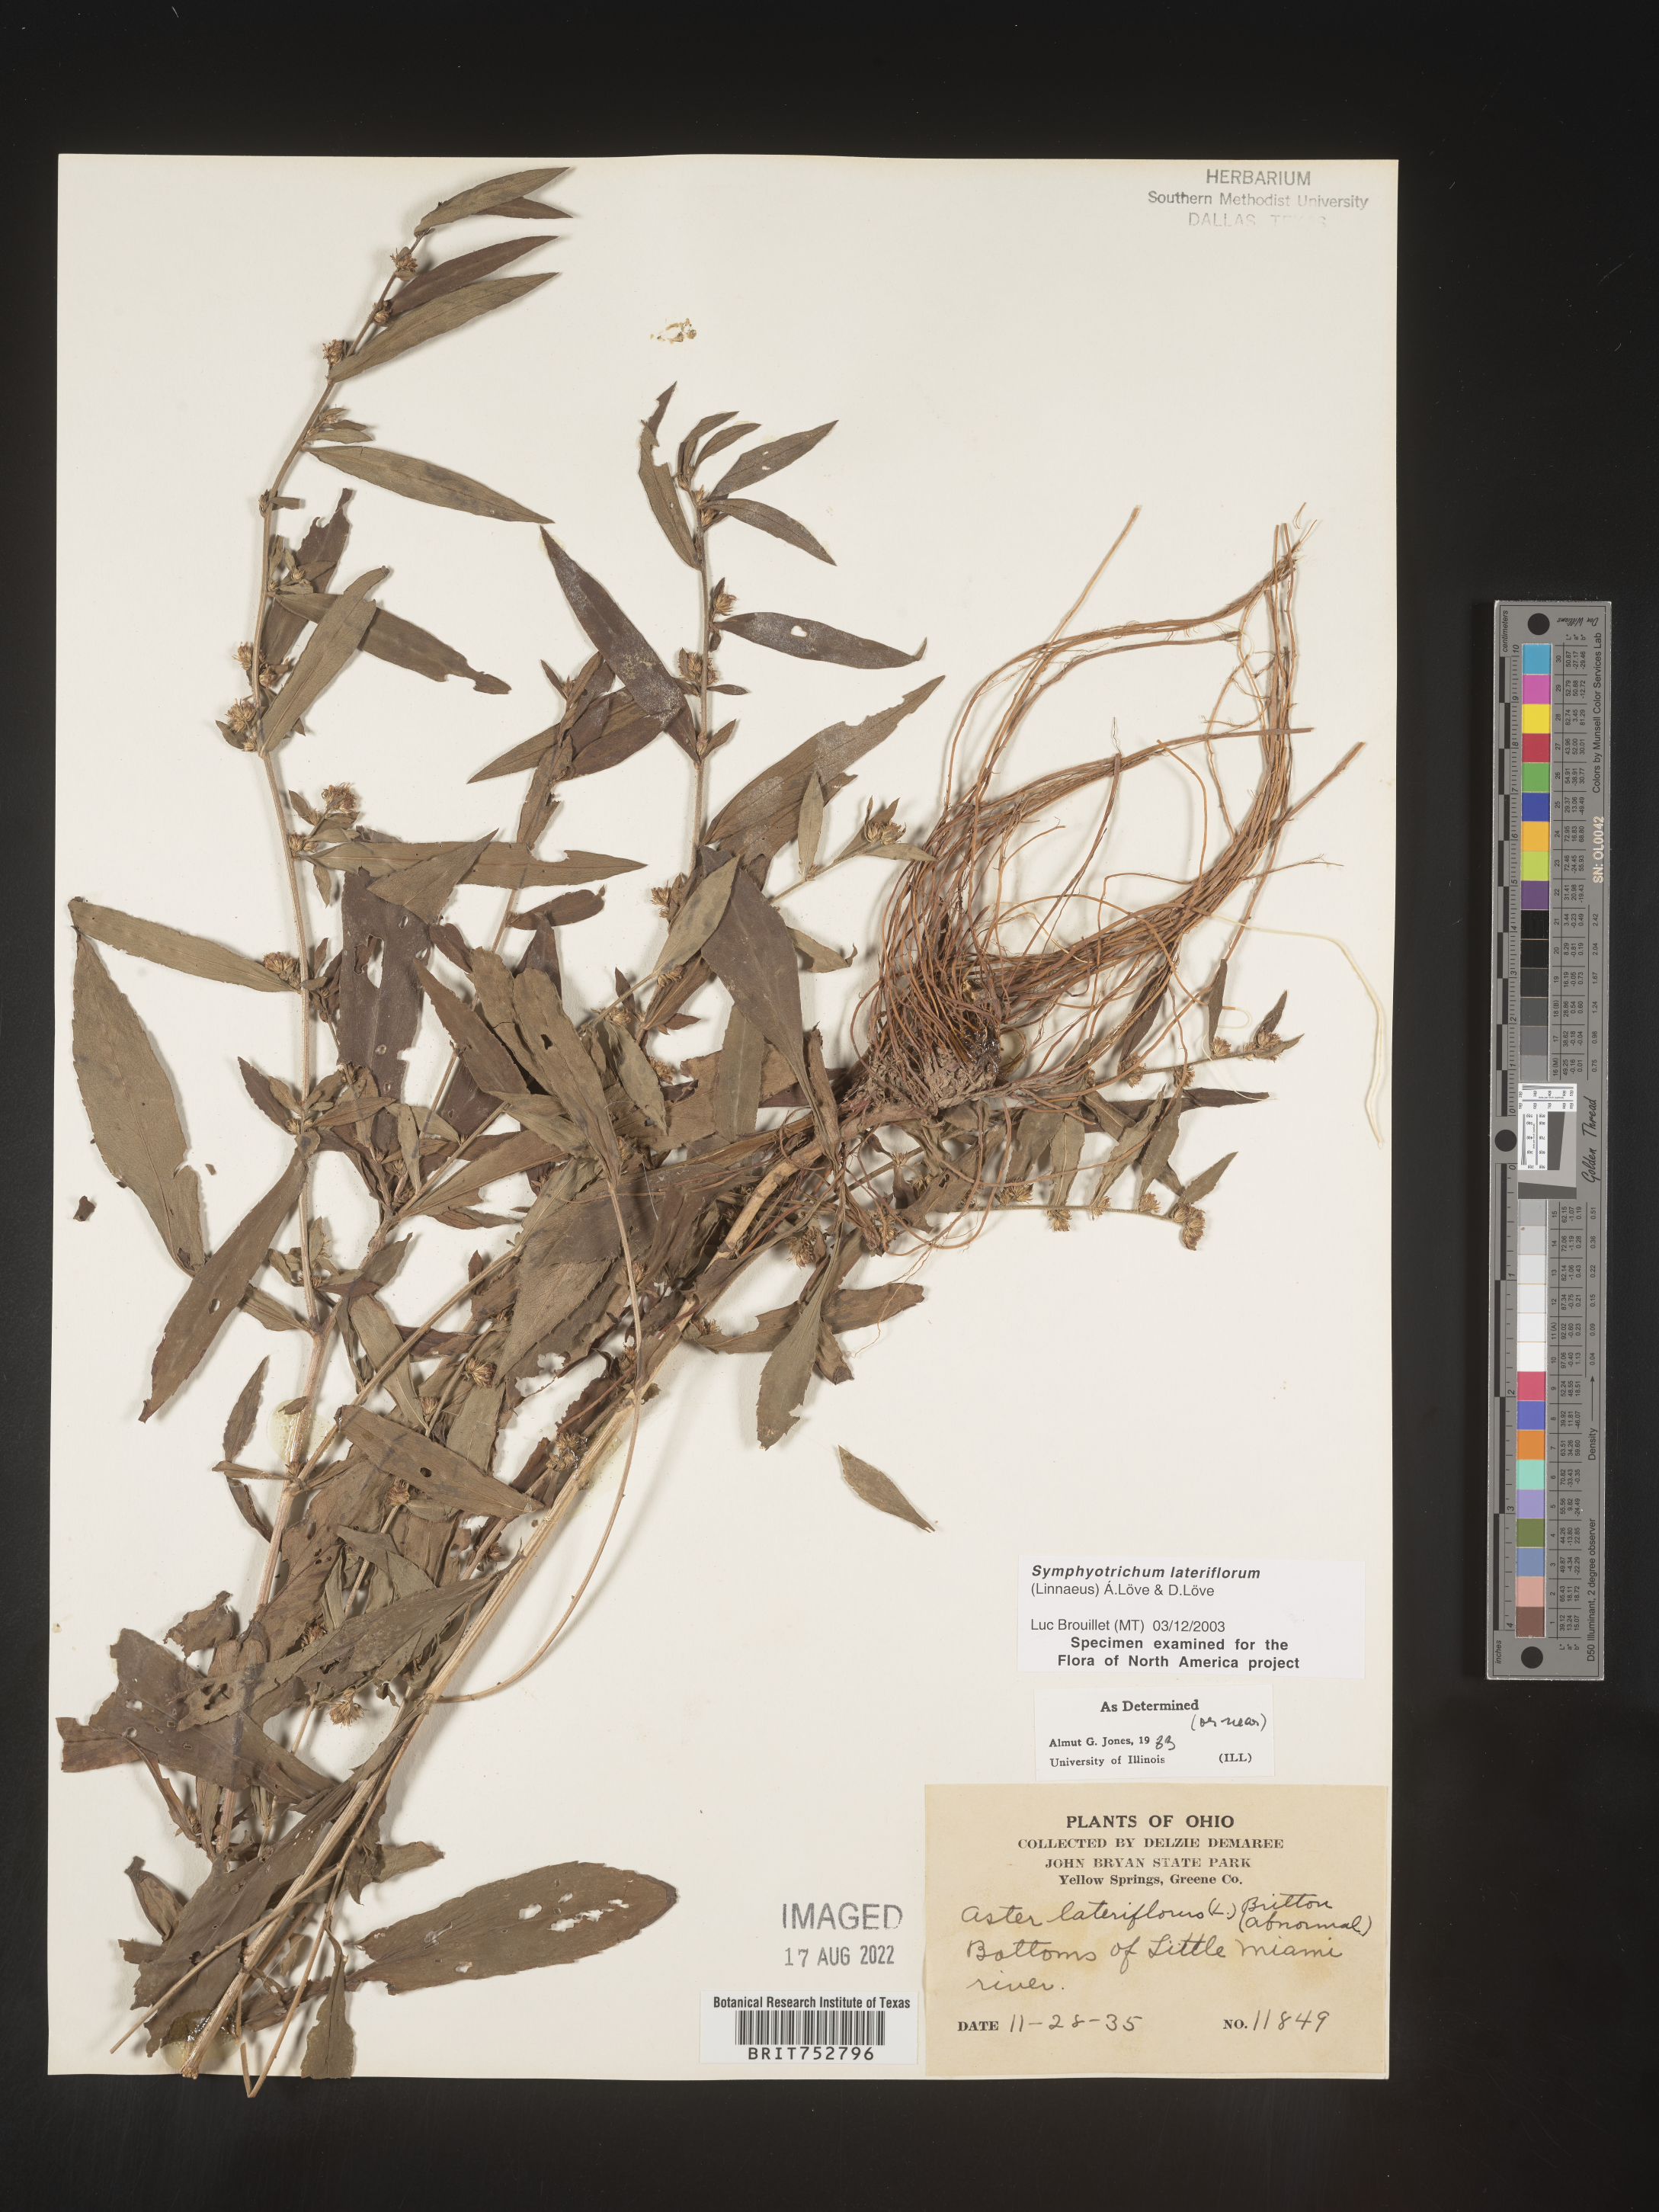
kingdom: Plantae
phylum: Tracheophyta
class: Magnoliopsida
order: Asterales
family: Asteraceae
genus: Symphyotrichum
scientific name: Symphyotrichum lateriflorum
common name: Calico aster
